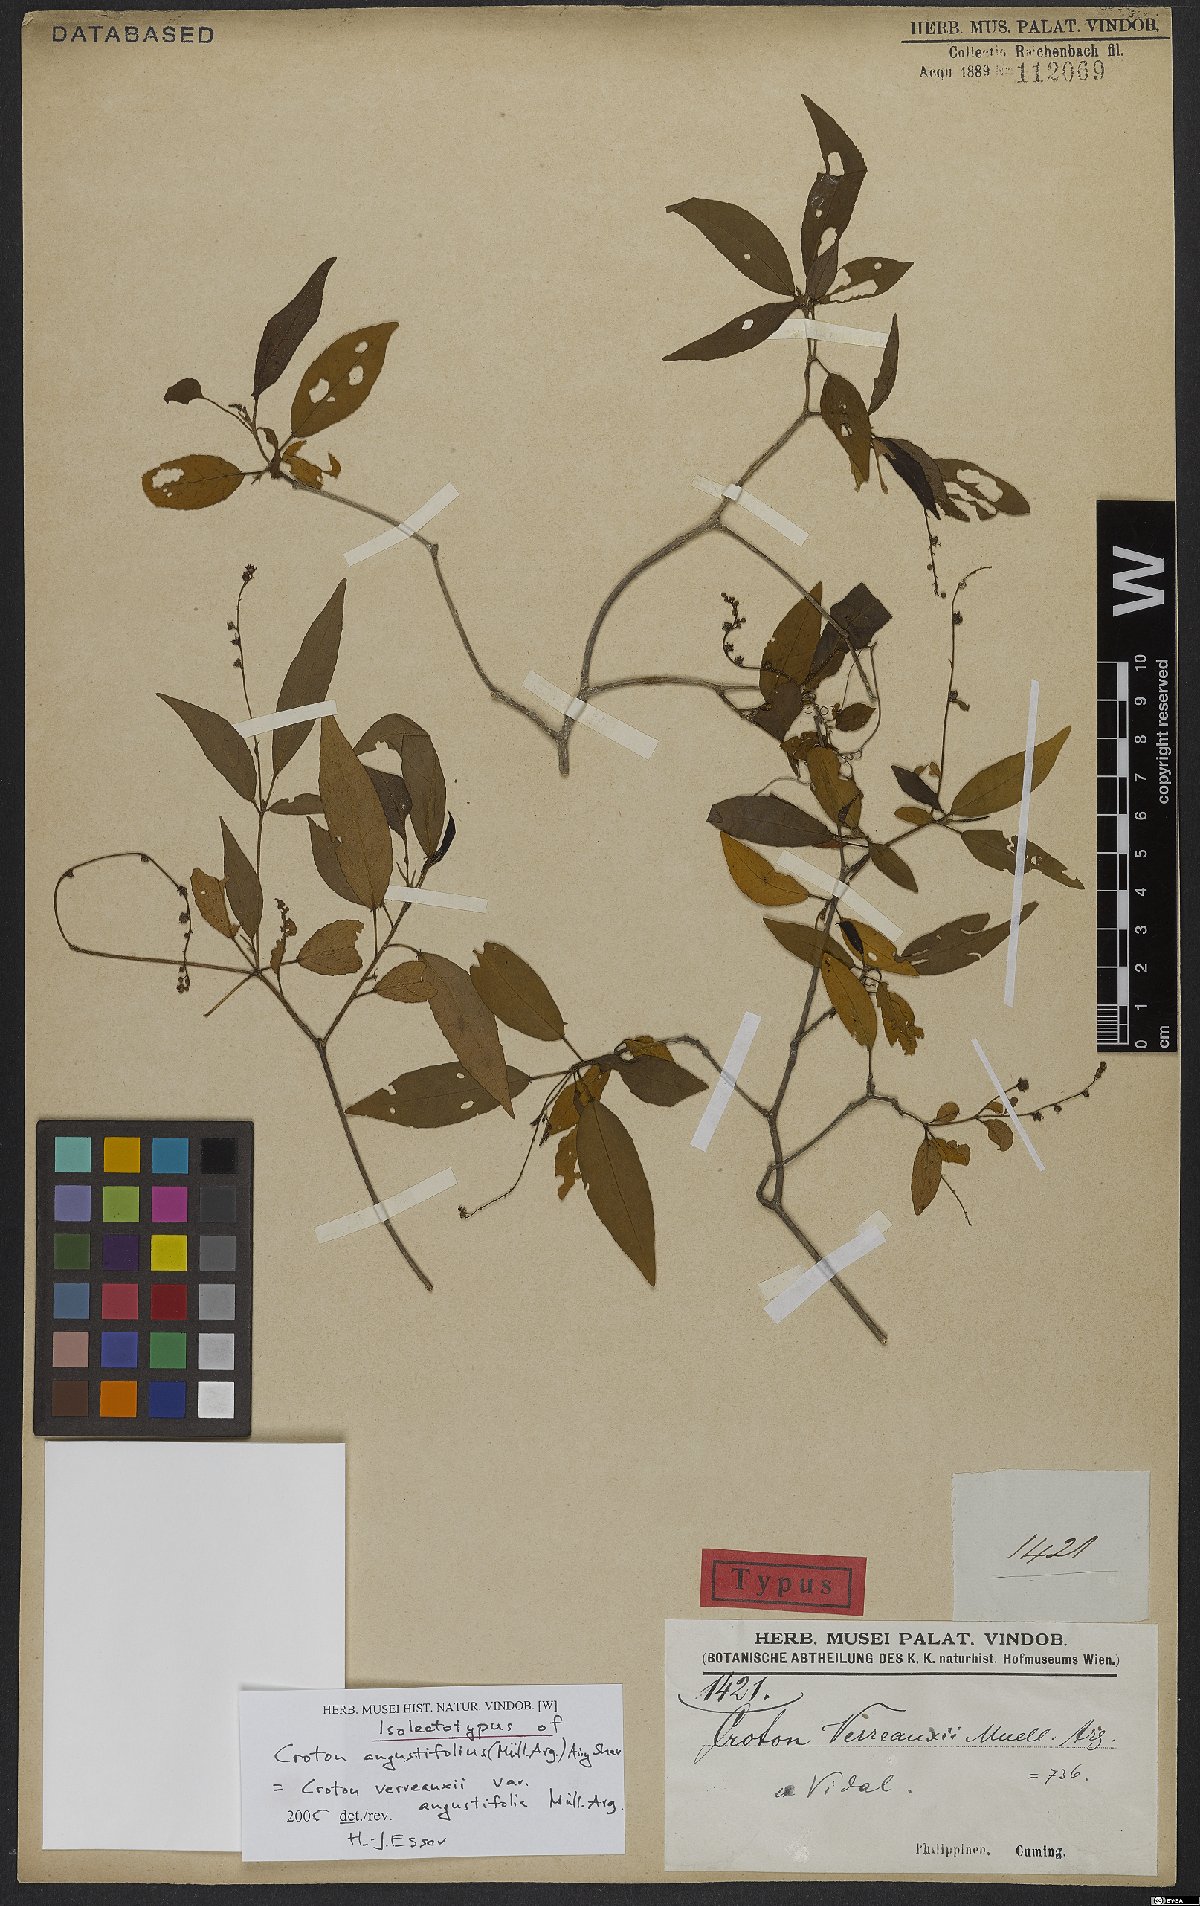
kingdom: Plantae
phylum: Tracheophyta
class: Magnoliopsida
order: Malpighiales
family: Euphorbiaceae
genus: Croton
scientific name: Croton verreauxii
